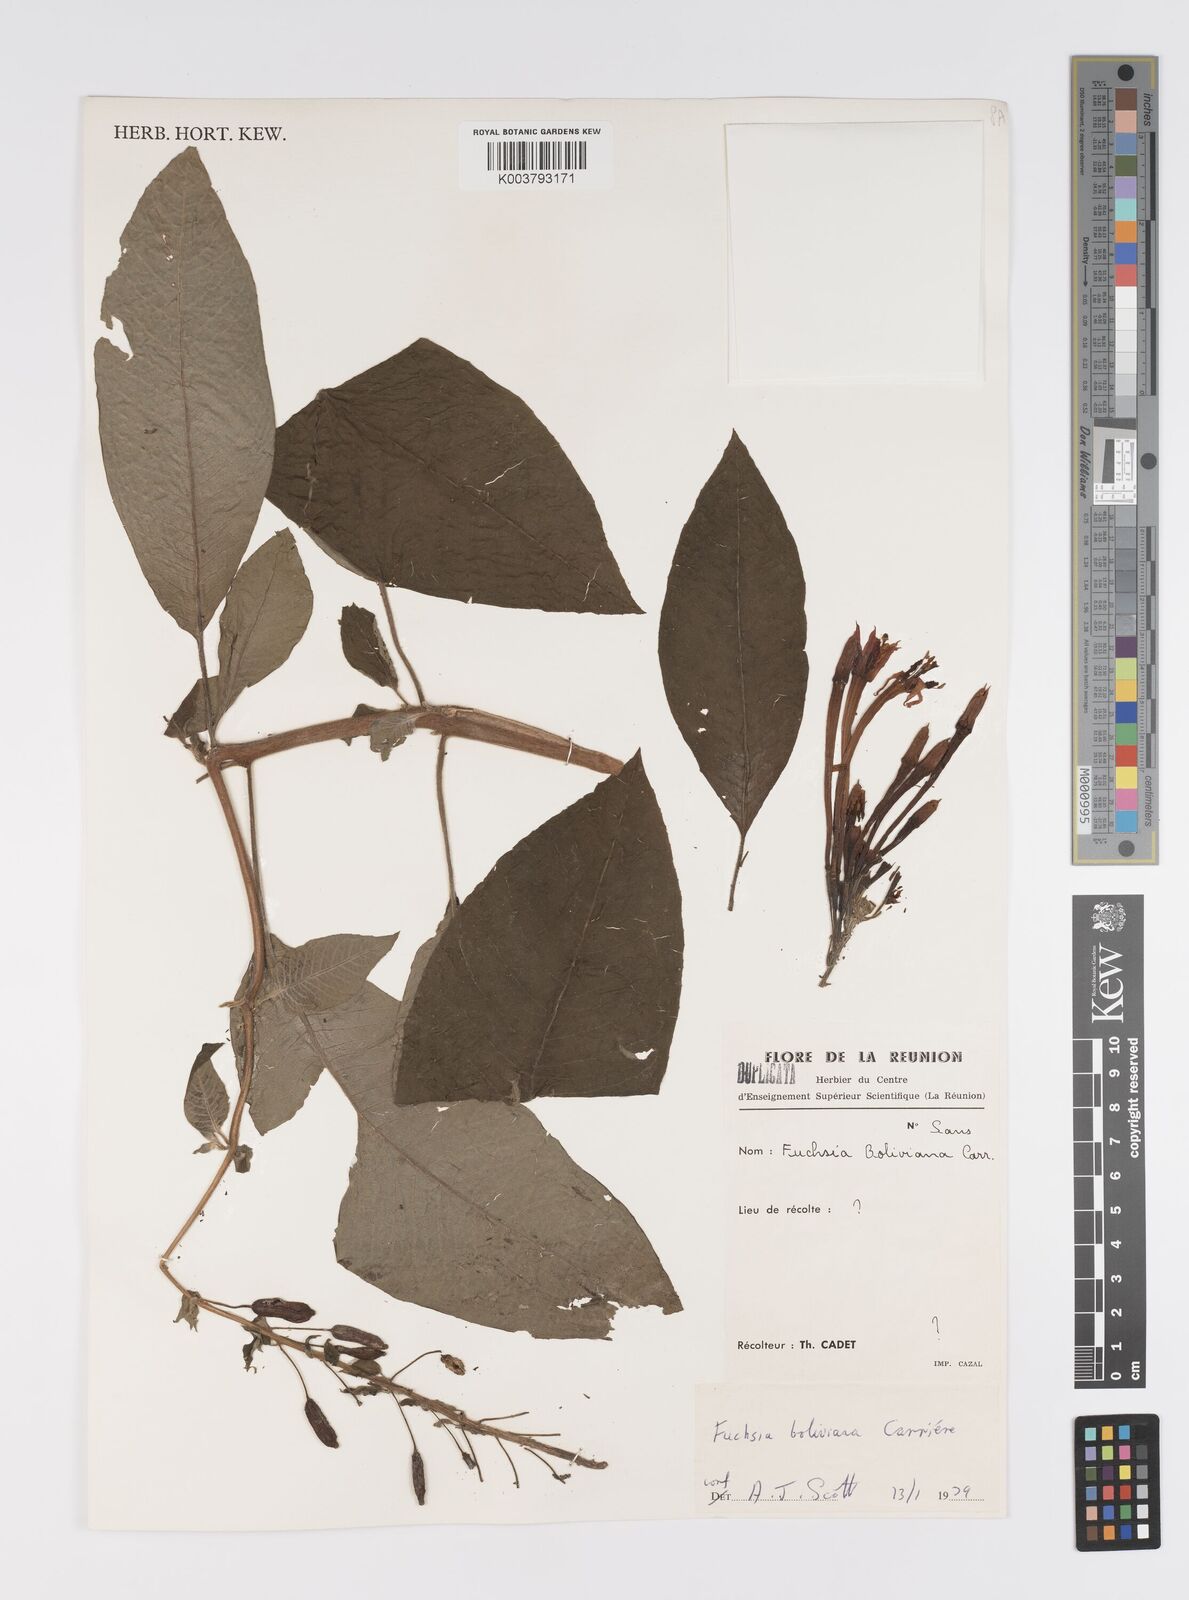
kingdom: Plantae
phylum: Tracheophyta
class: Magnoliopsida
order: Myrtales
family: Onagraceae
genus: Fuchsia
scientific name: Fuchsia boliviana
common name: Bolivian fuchsia
